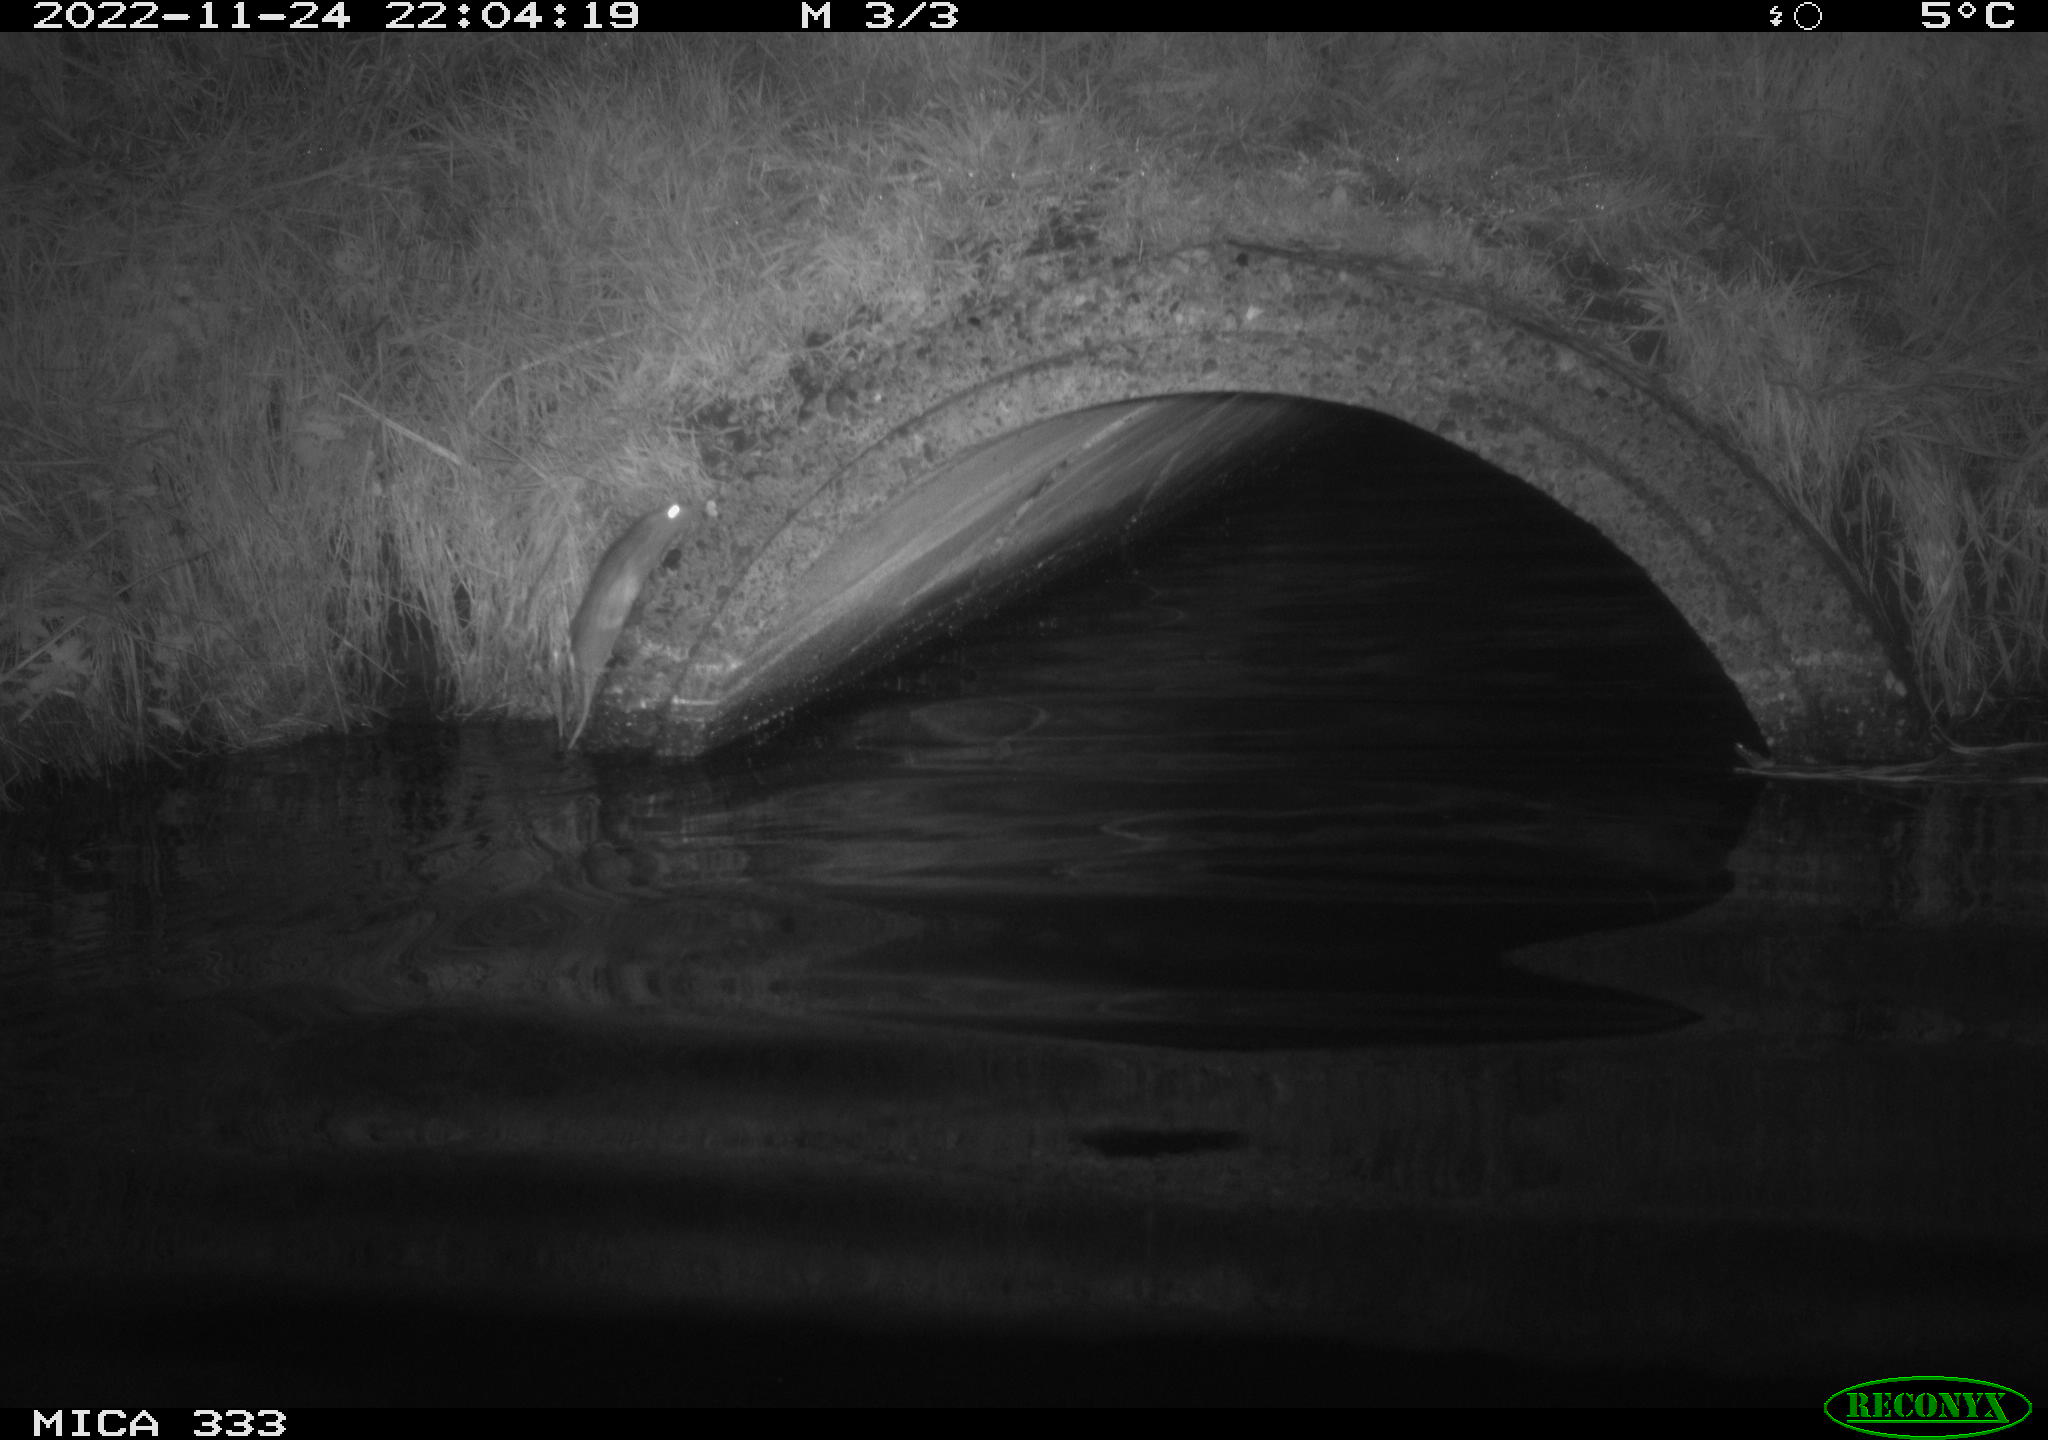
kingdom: Animalia
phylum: Chordata
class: Mammalia
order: Rodentia
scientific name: Rodentia
